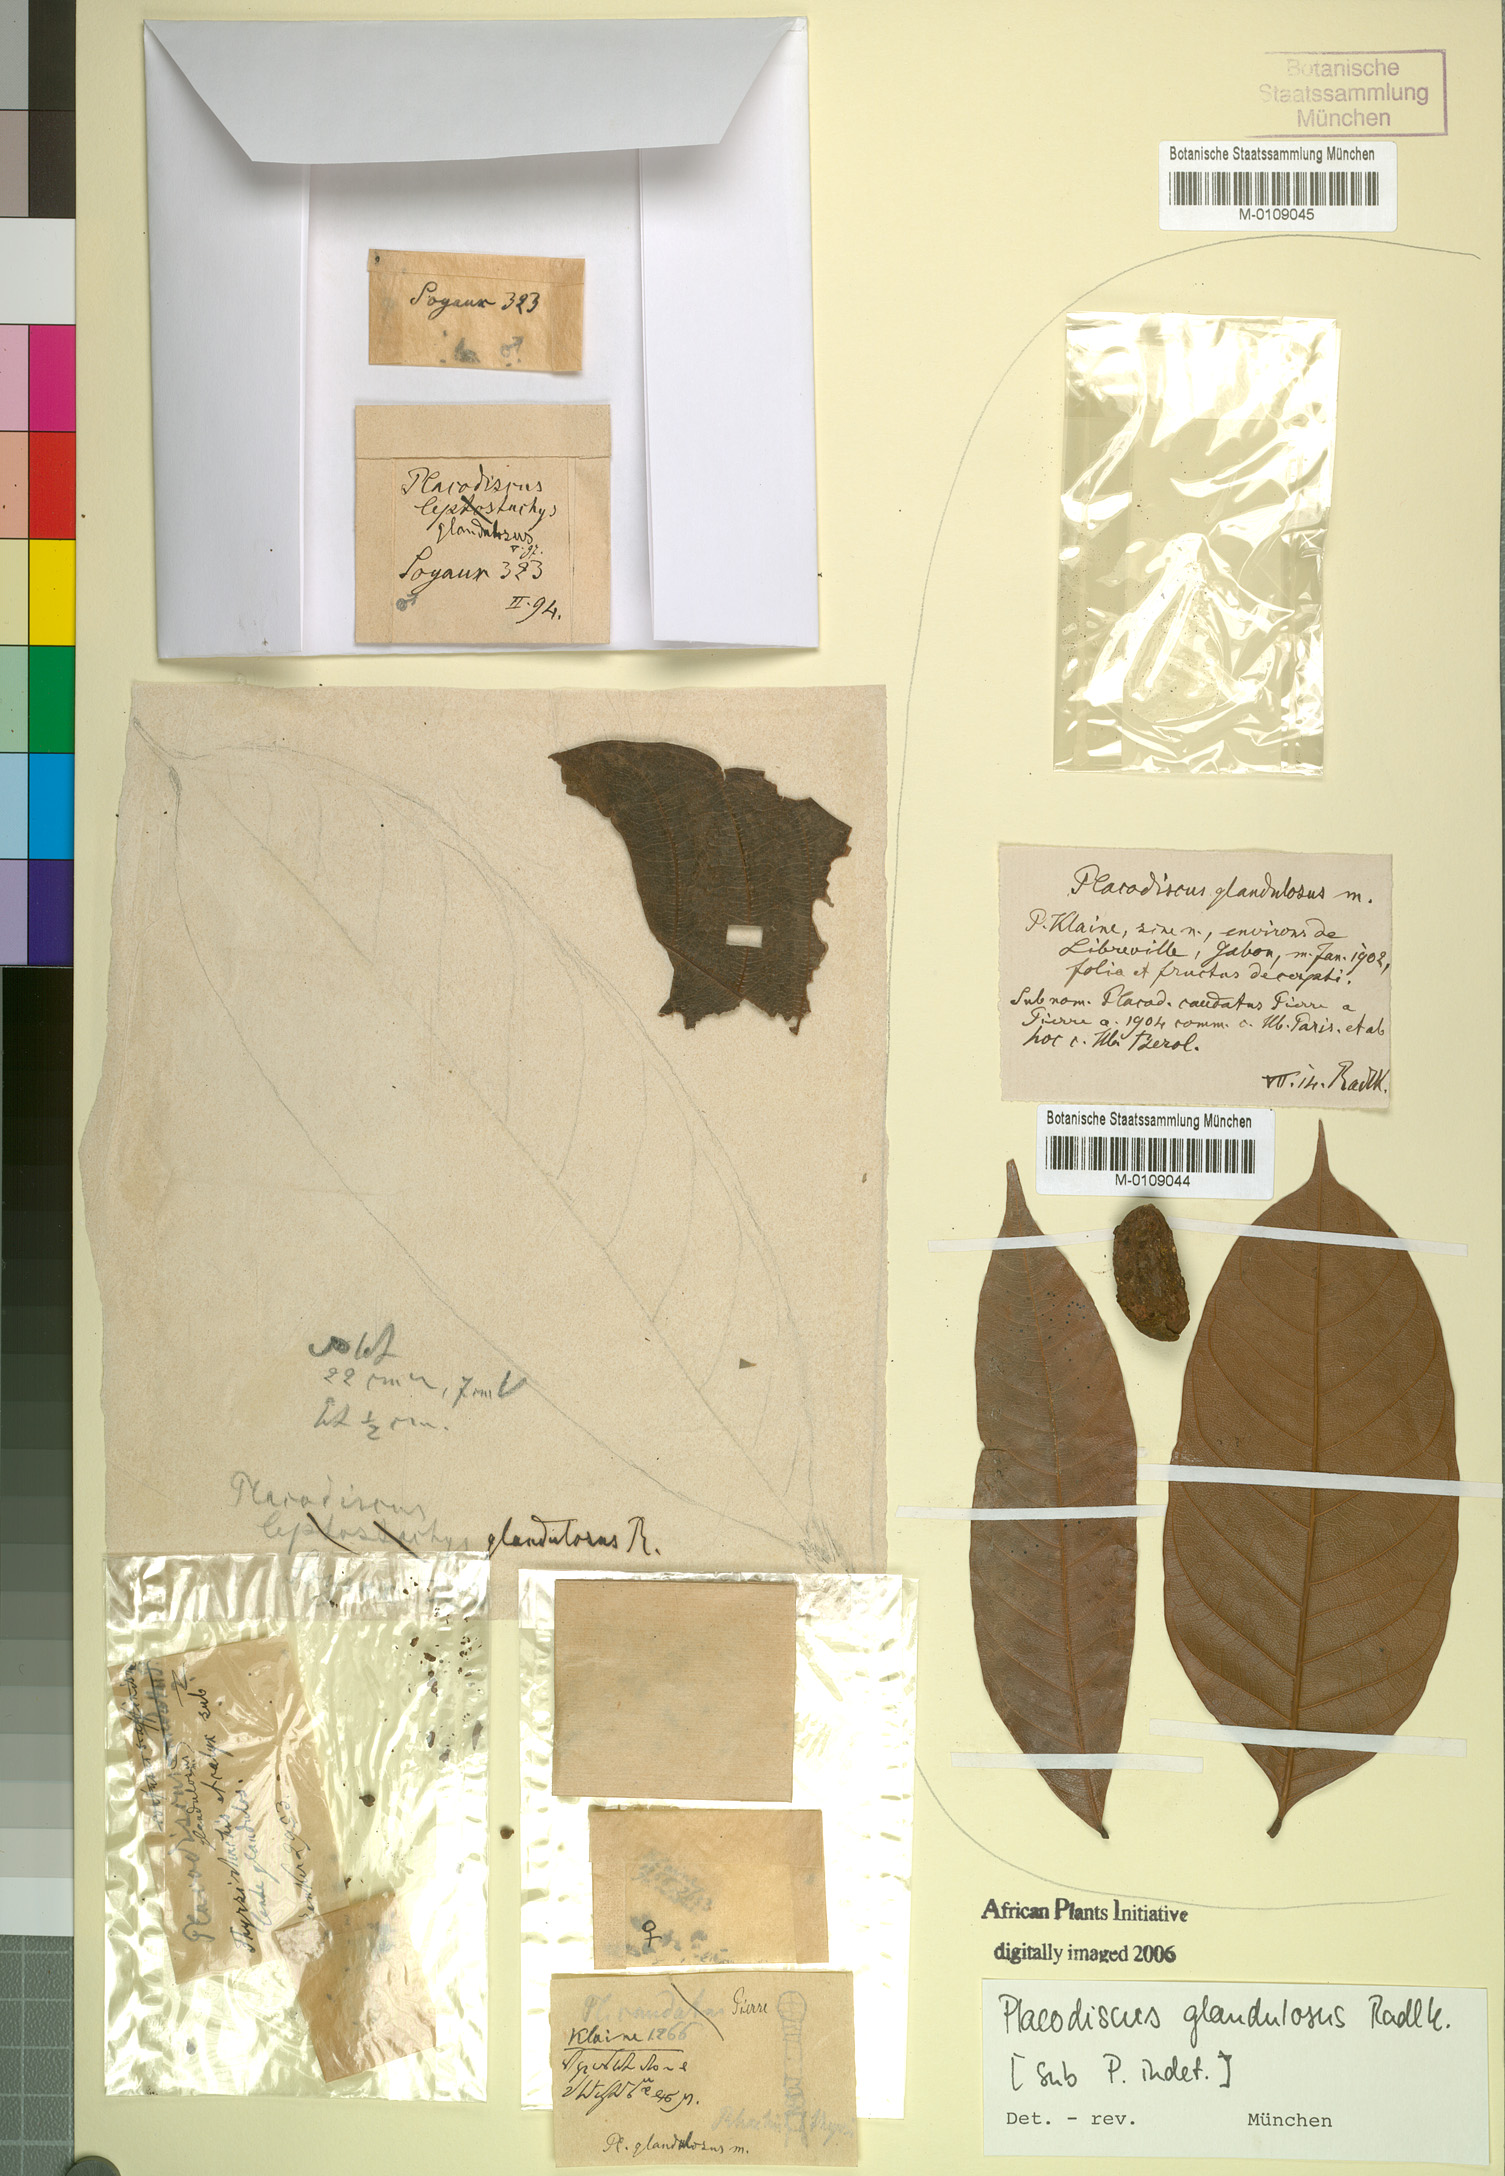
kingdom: Plantae
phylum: Tracheophyta
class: Magnoliopsida
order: Sapindales
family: Sapindaceae
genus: Placodiscus
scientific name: Placodiscus glandulosus
